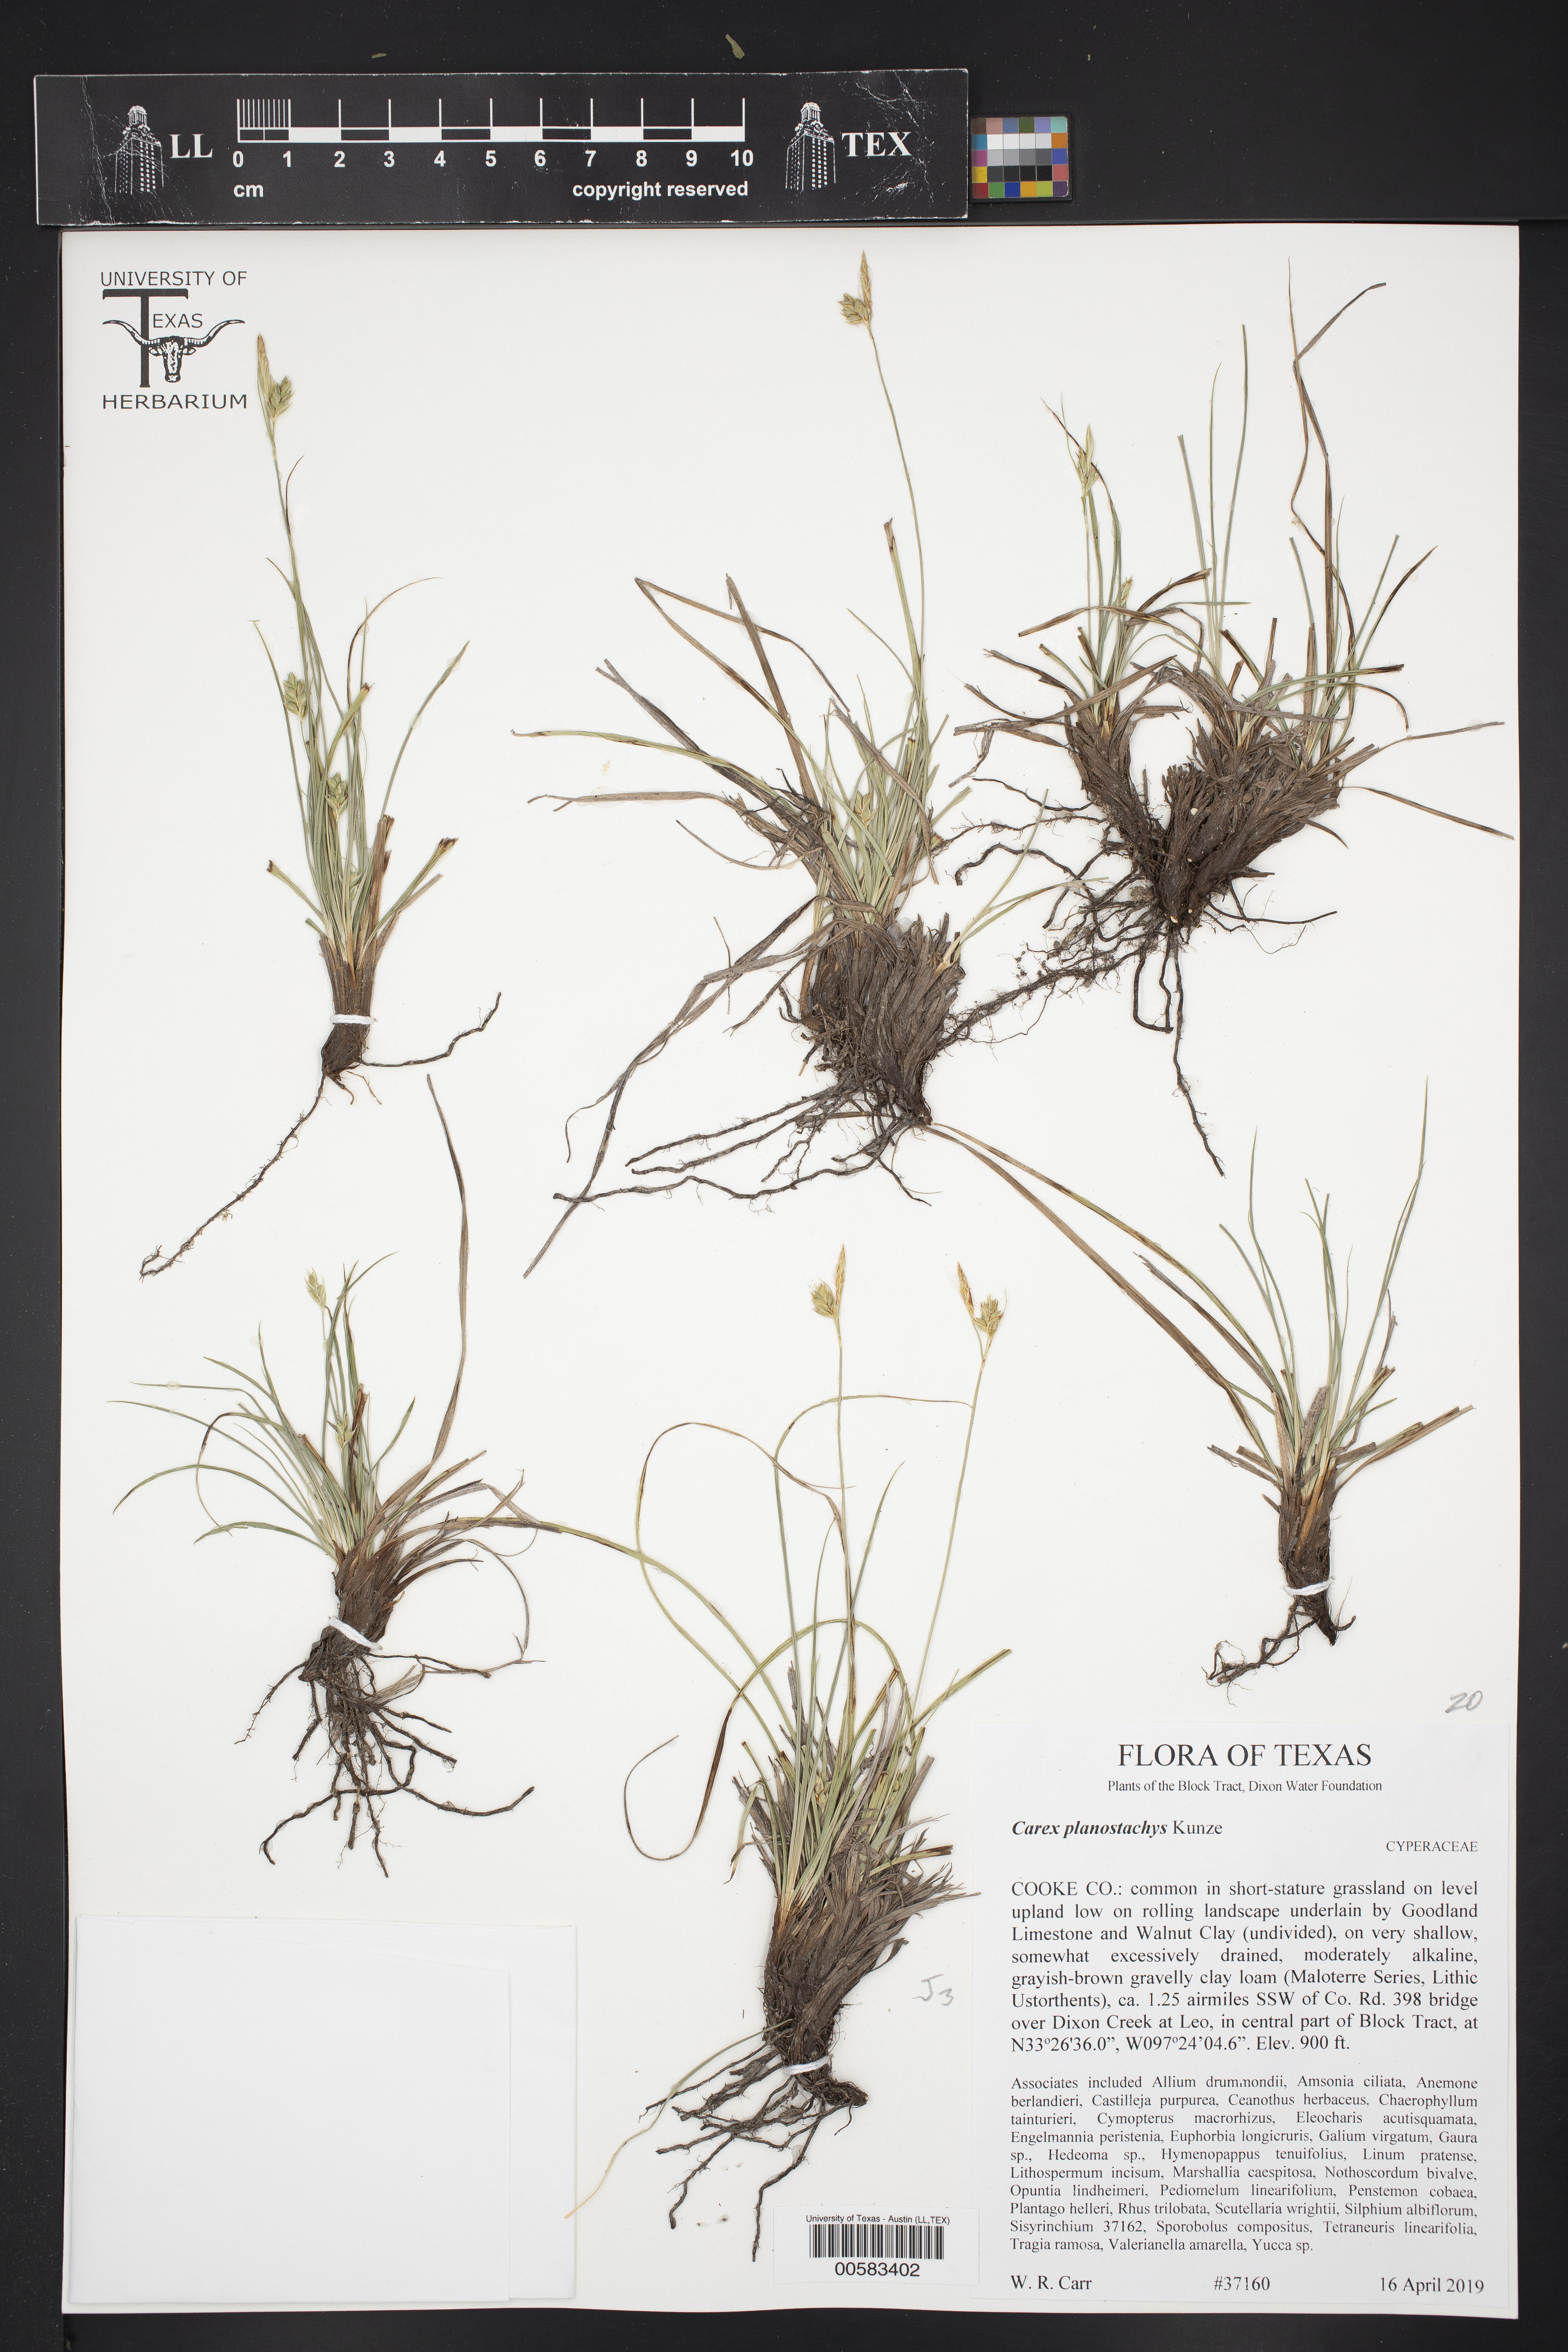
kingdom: Plantae
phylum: Tracheophyta
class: Liliopsida
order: Poales
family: Cyperaceae
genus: Carex
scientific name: Carex planostachys
